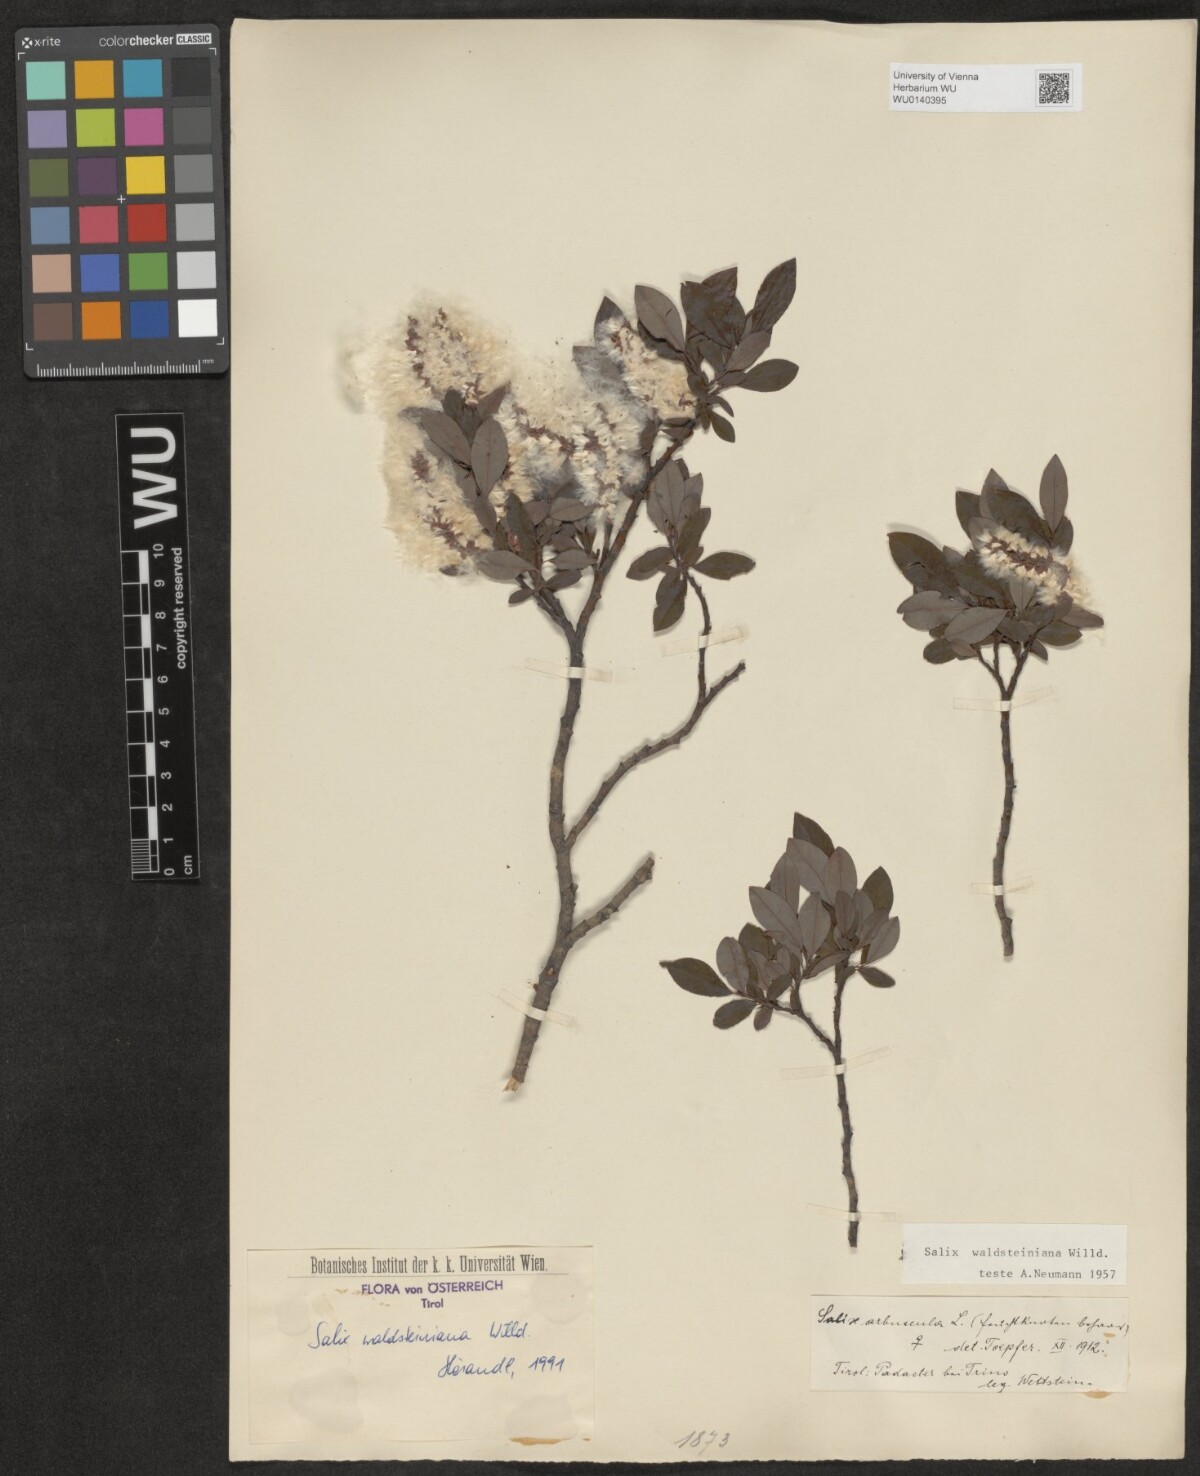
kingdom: Plantae
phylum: Tracheophyta
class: Magnoliopsida
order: Malpighiales
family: Salicaceae
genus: Salix
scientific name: Salix waldsteiniana
